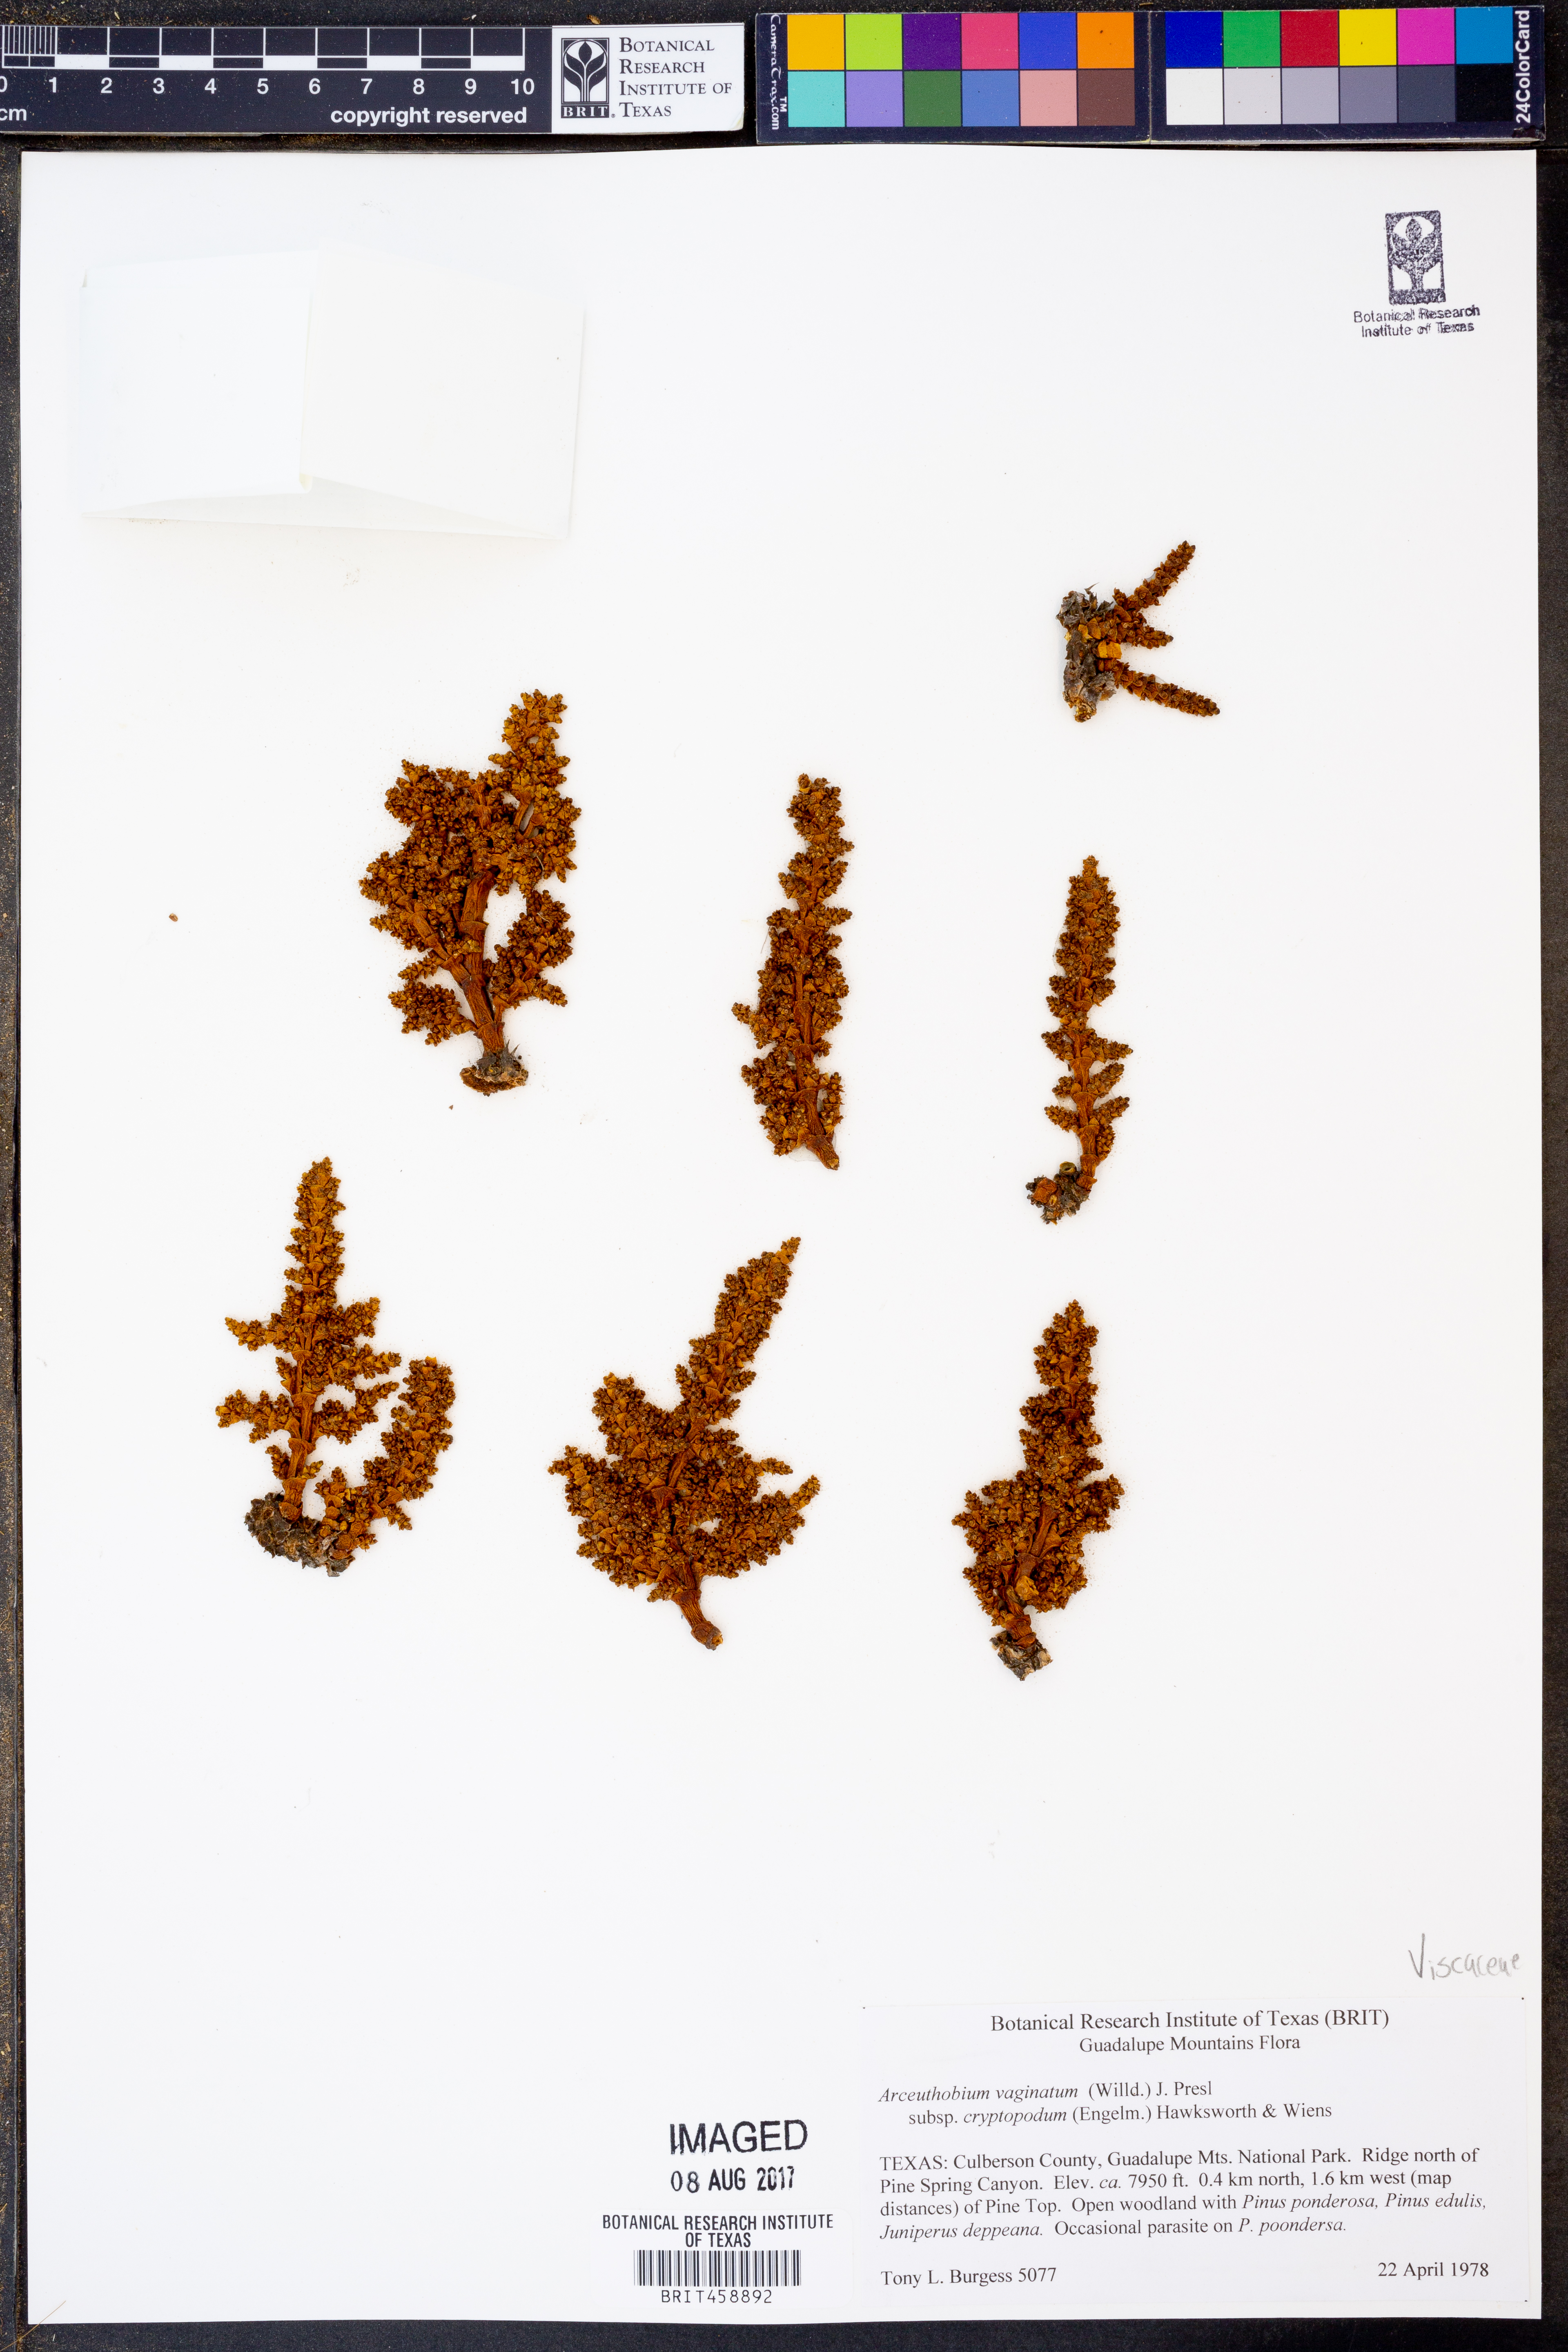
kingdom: Plantae
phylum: Tracheophyta
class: Magnoliopsida
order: Santalales
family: Viscaceae
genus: Arceuthobium
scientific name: Arceuthobium vaginatum
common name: Southwestern dwarf-mistletoe
